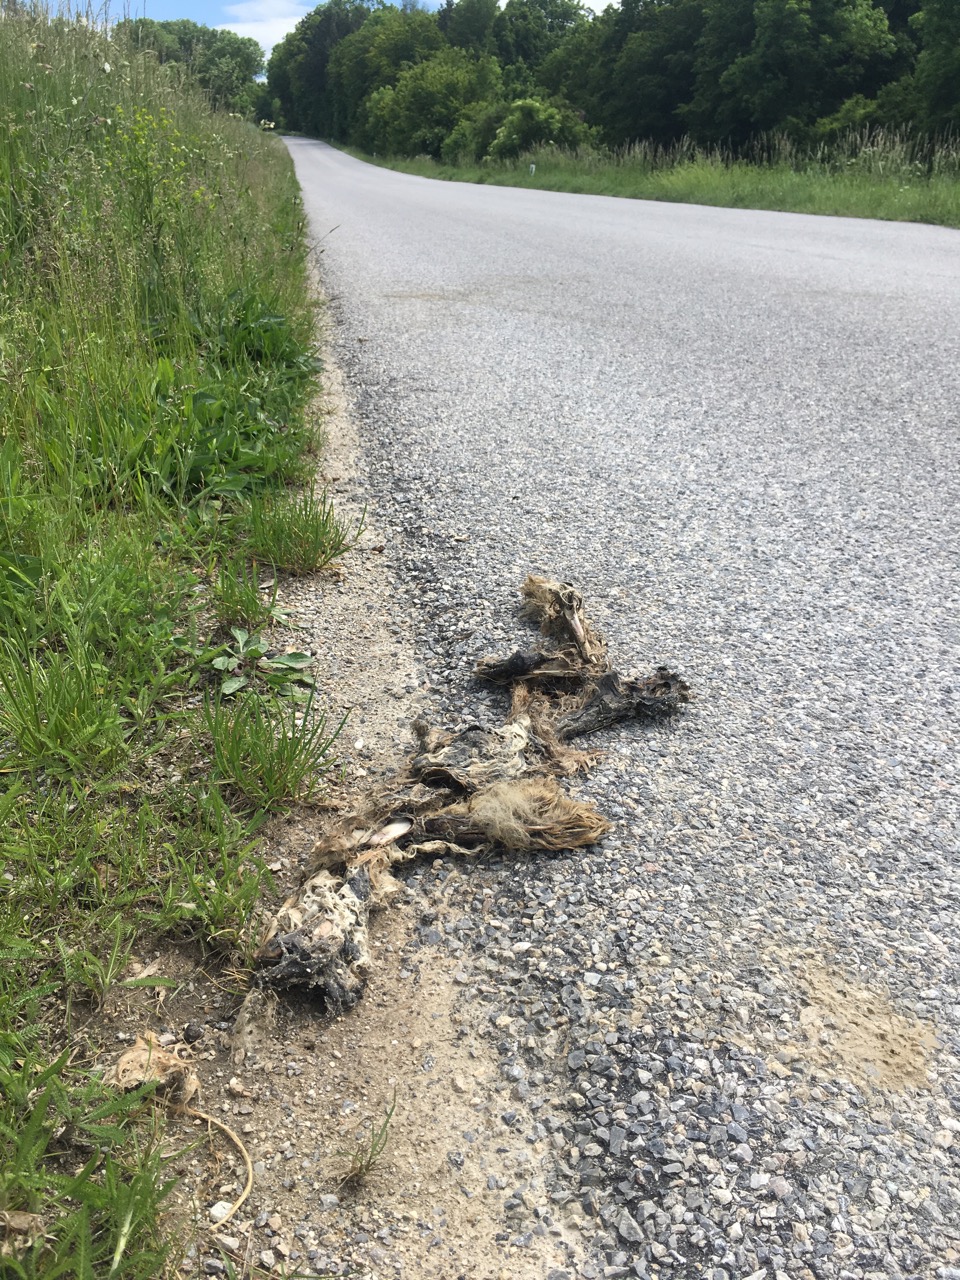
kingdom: Animalia
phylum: Chordata
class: Mammalia
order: Lagomorpha
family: Leporidae
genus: Lepus
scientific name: Lepus europaeus
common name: European hare
